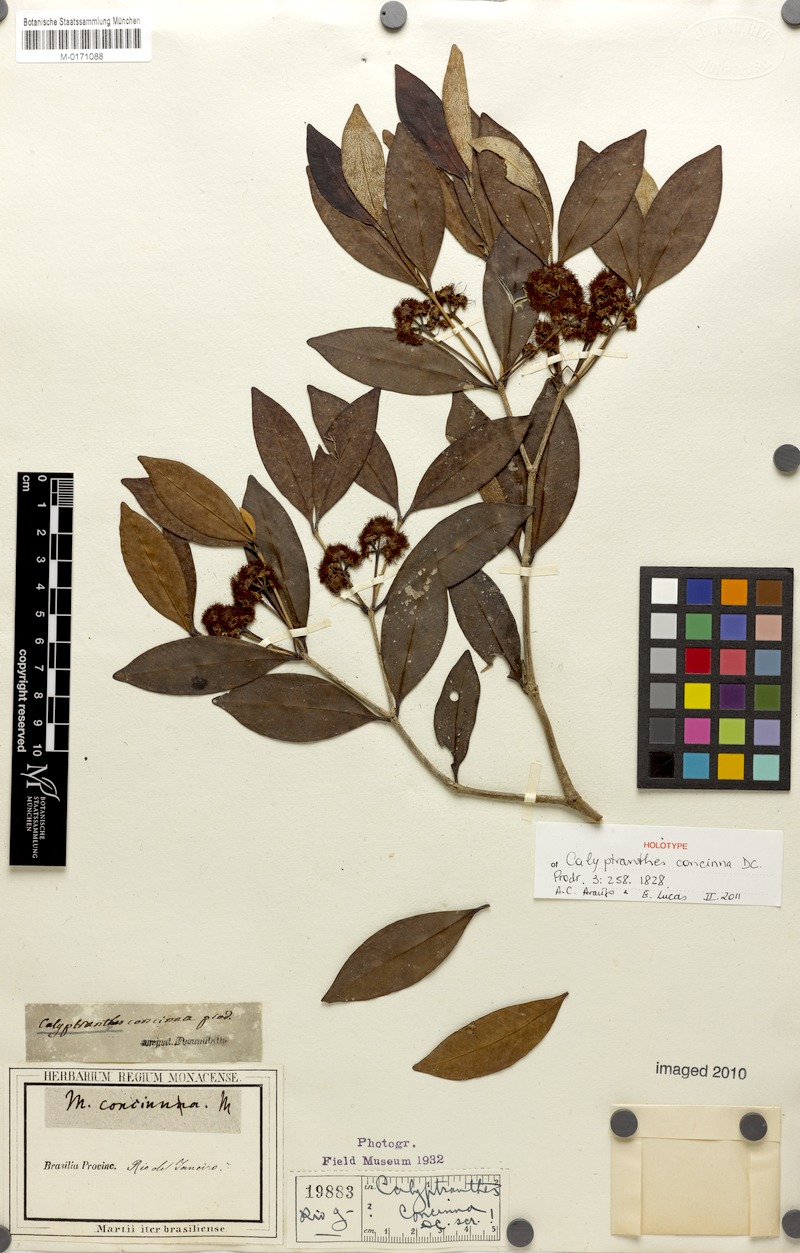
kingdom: Plantae
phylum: Tracheophyta
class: Magnoliopsida
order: Myrtales
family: Myrtaceae
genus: Myrcia
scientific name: Myrcia cruciflora
